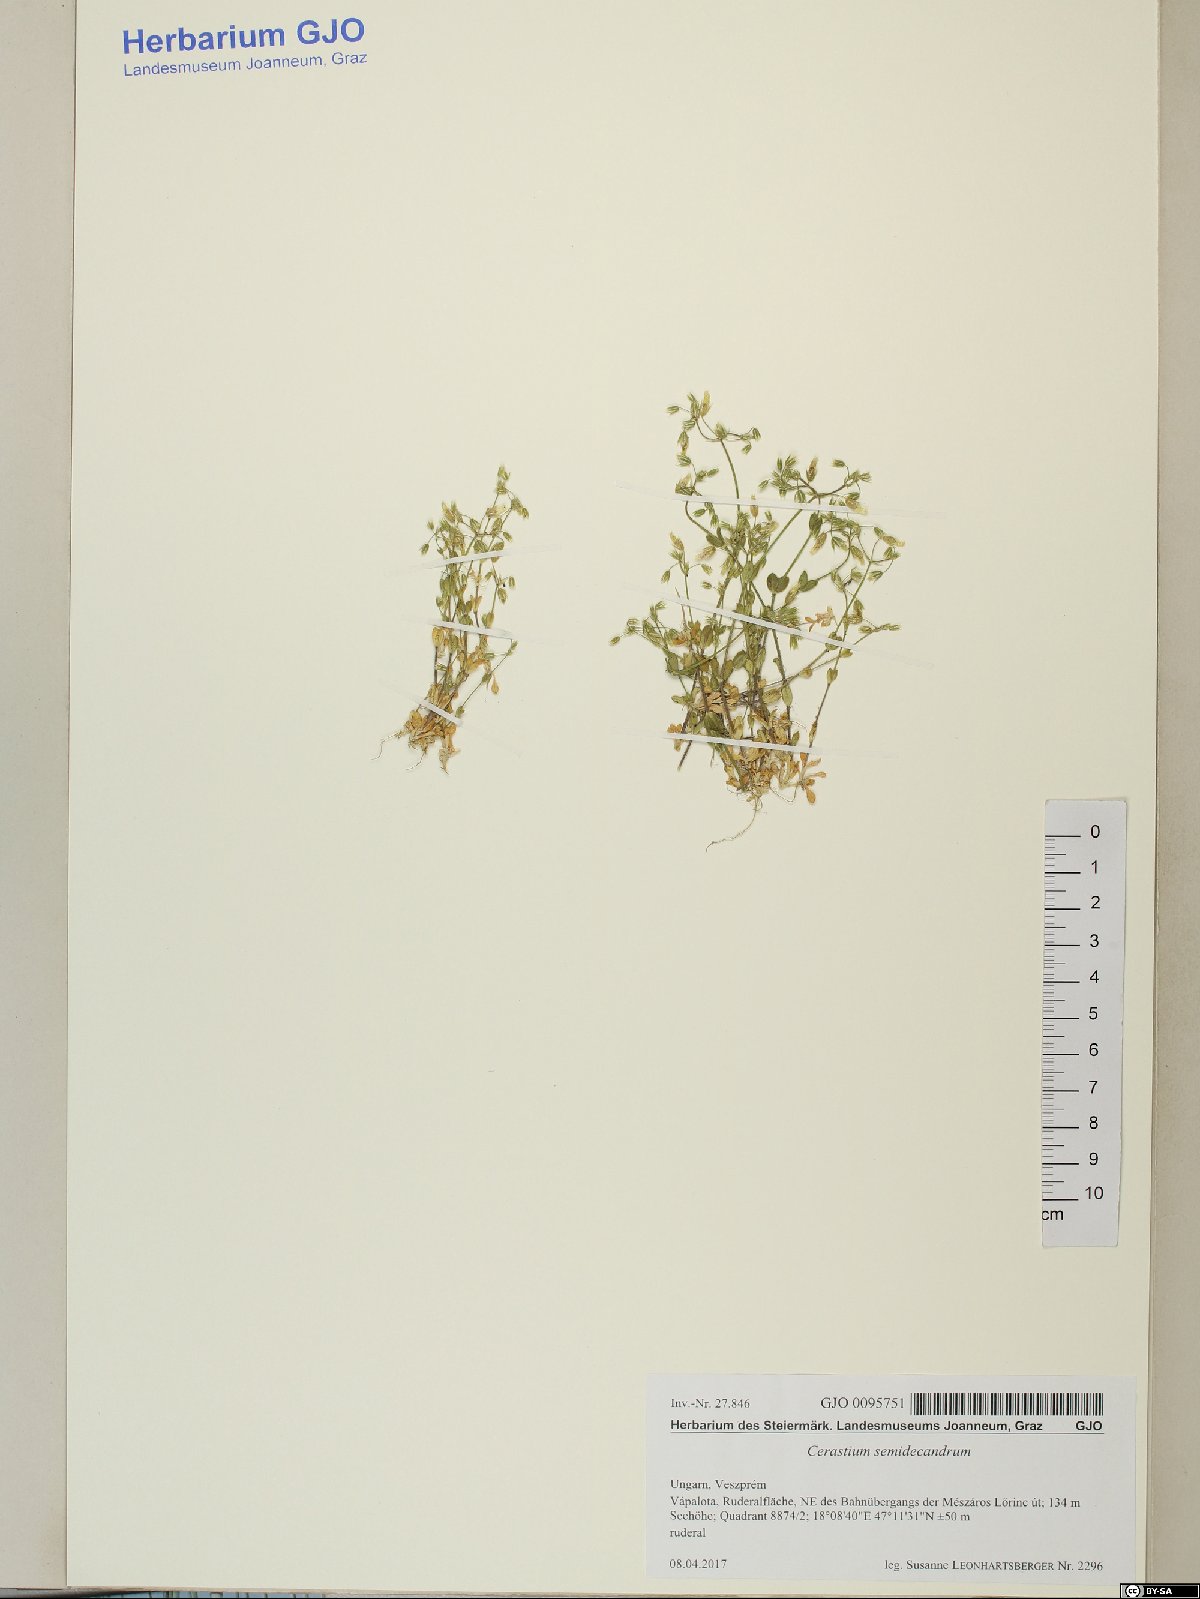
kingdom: Plantae
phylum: Tracheophyta
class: Magnoliopsida
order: Caryophyllales
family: Caryophyllaceae
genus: Cerastium
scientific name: Cerastium semidecandrum
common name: Little mouse-ear
